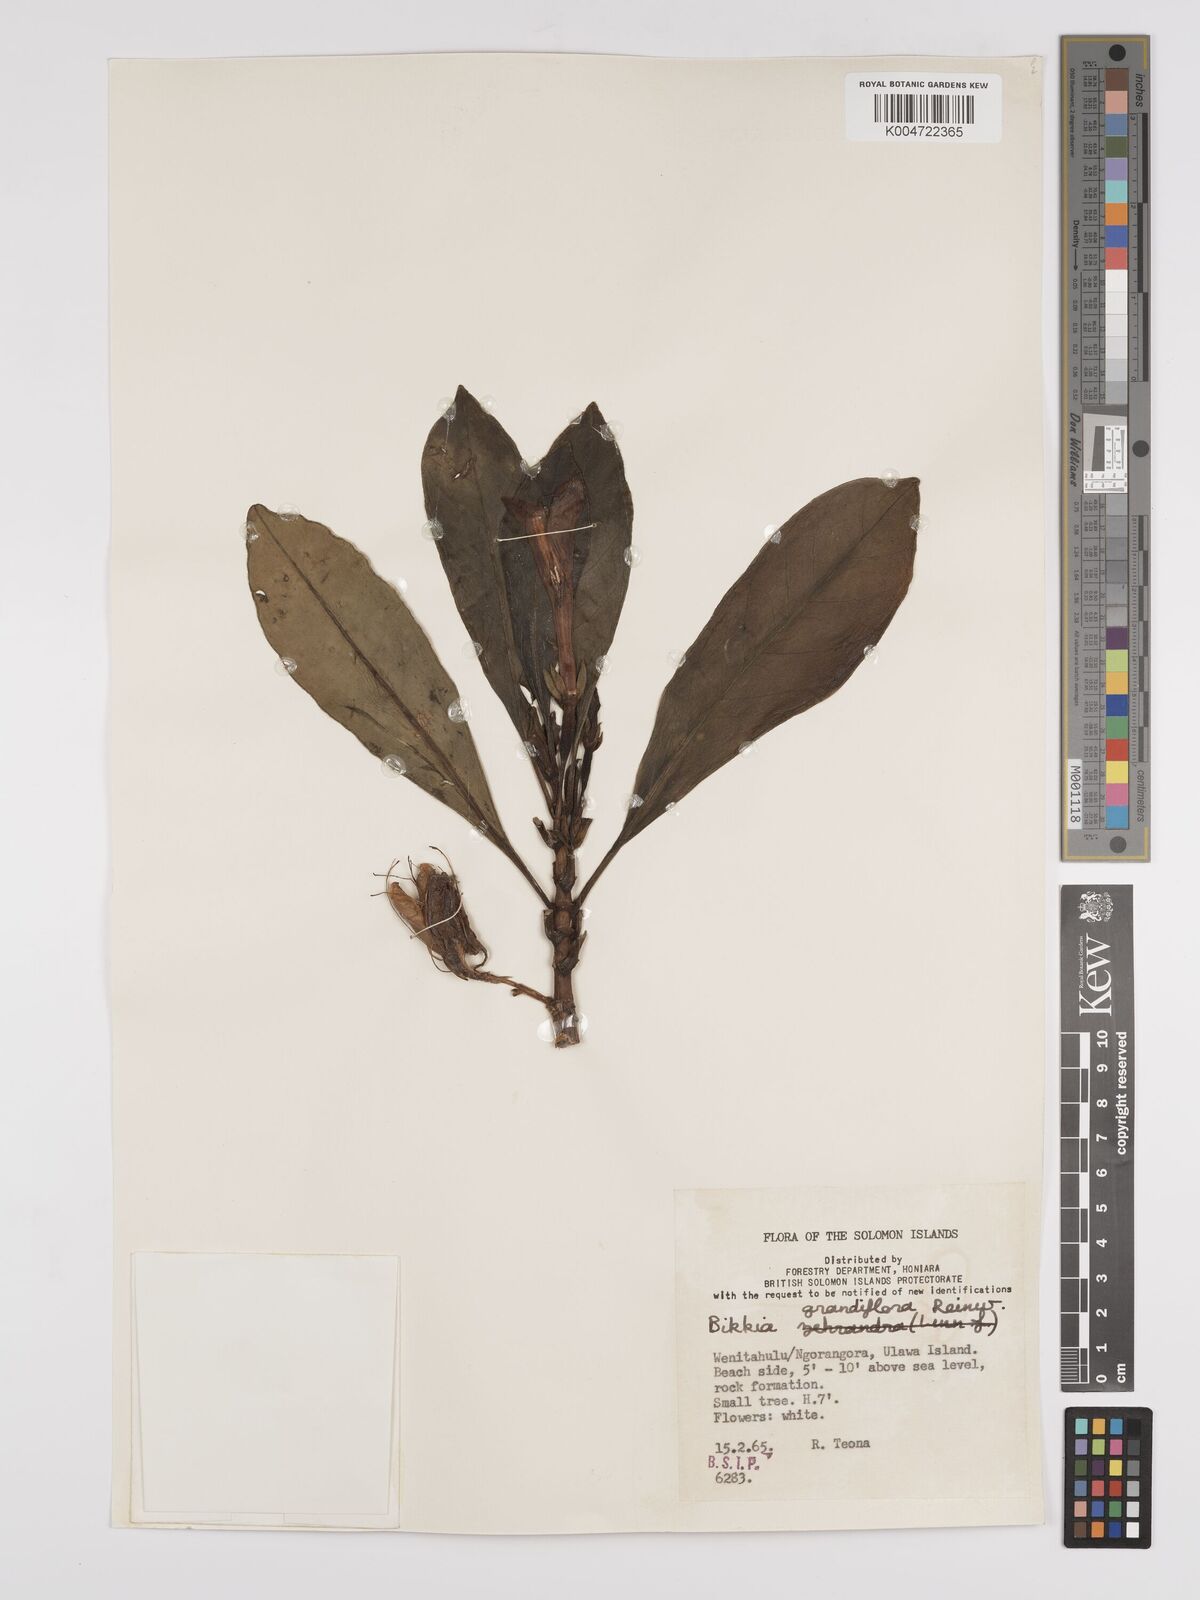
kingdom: Plantae
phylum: Tracheophyta
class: Magnoliopsida
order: Gentianales
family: Rubiaceae
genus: Bikkia
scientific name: Bikkia tetrandra
